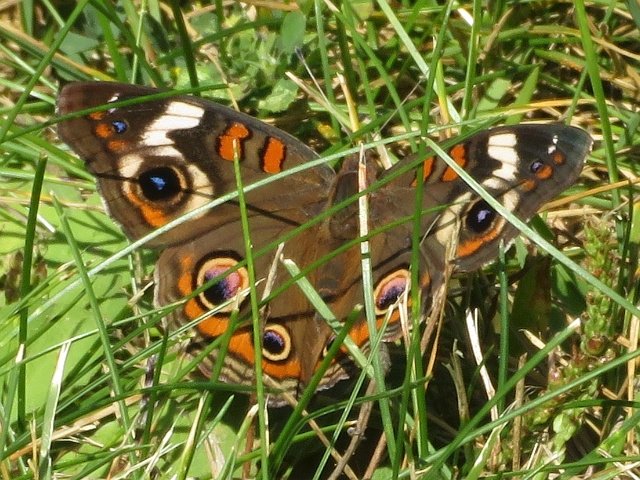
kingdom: Animalia
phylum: Arthropoda
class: Insecta
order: Lepidoptera
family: Nymphalidae
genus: Junonia
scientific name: Junonia coenia
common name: Common Buckeye
